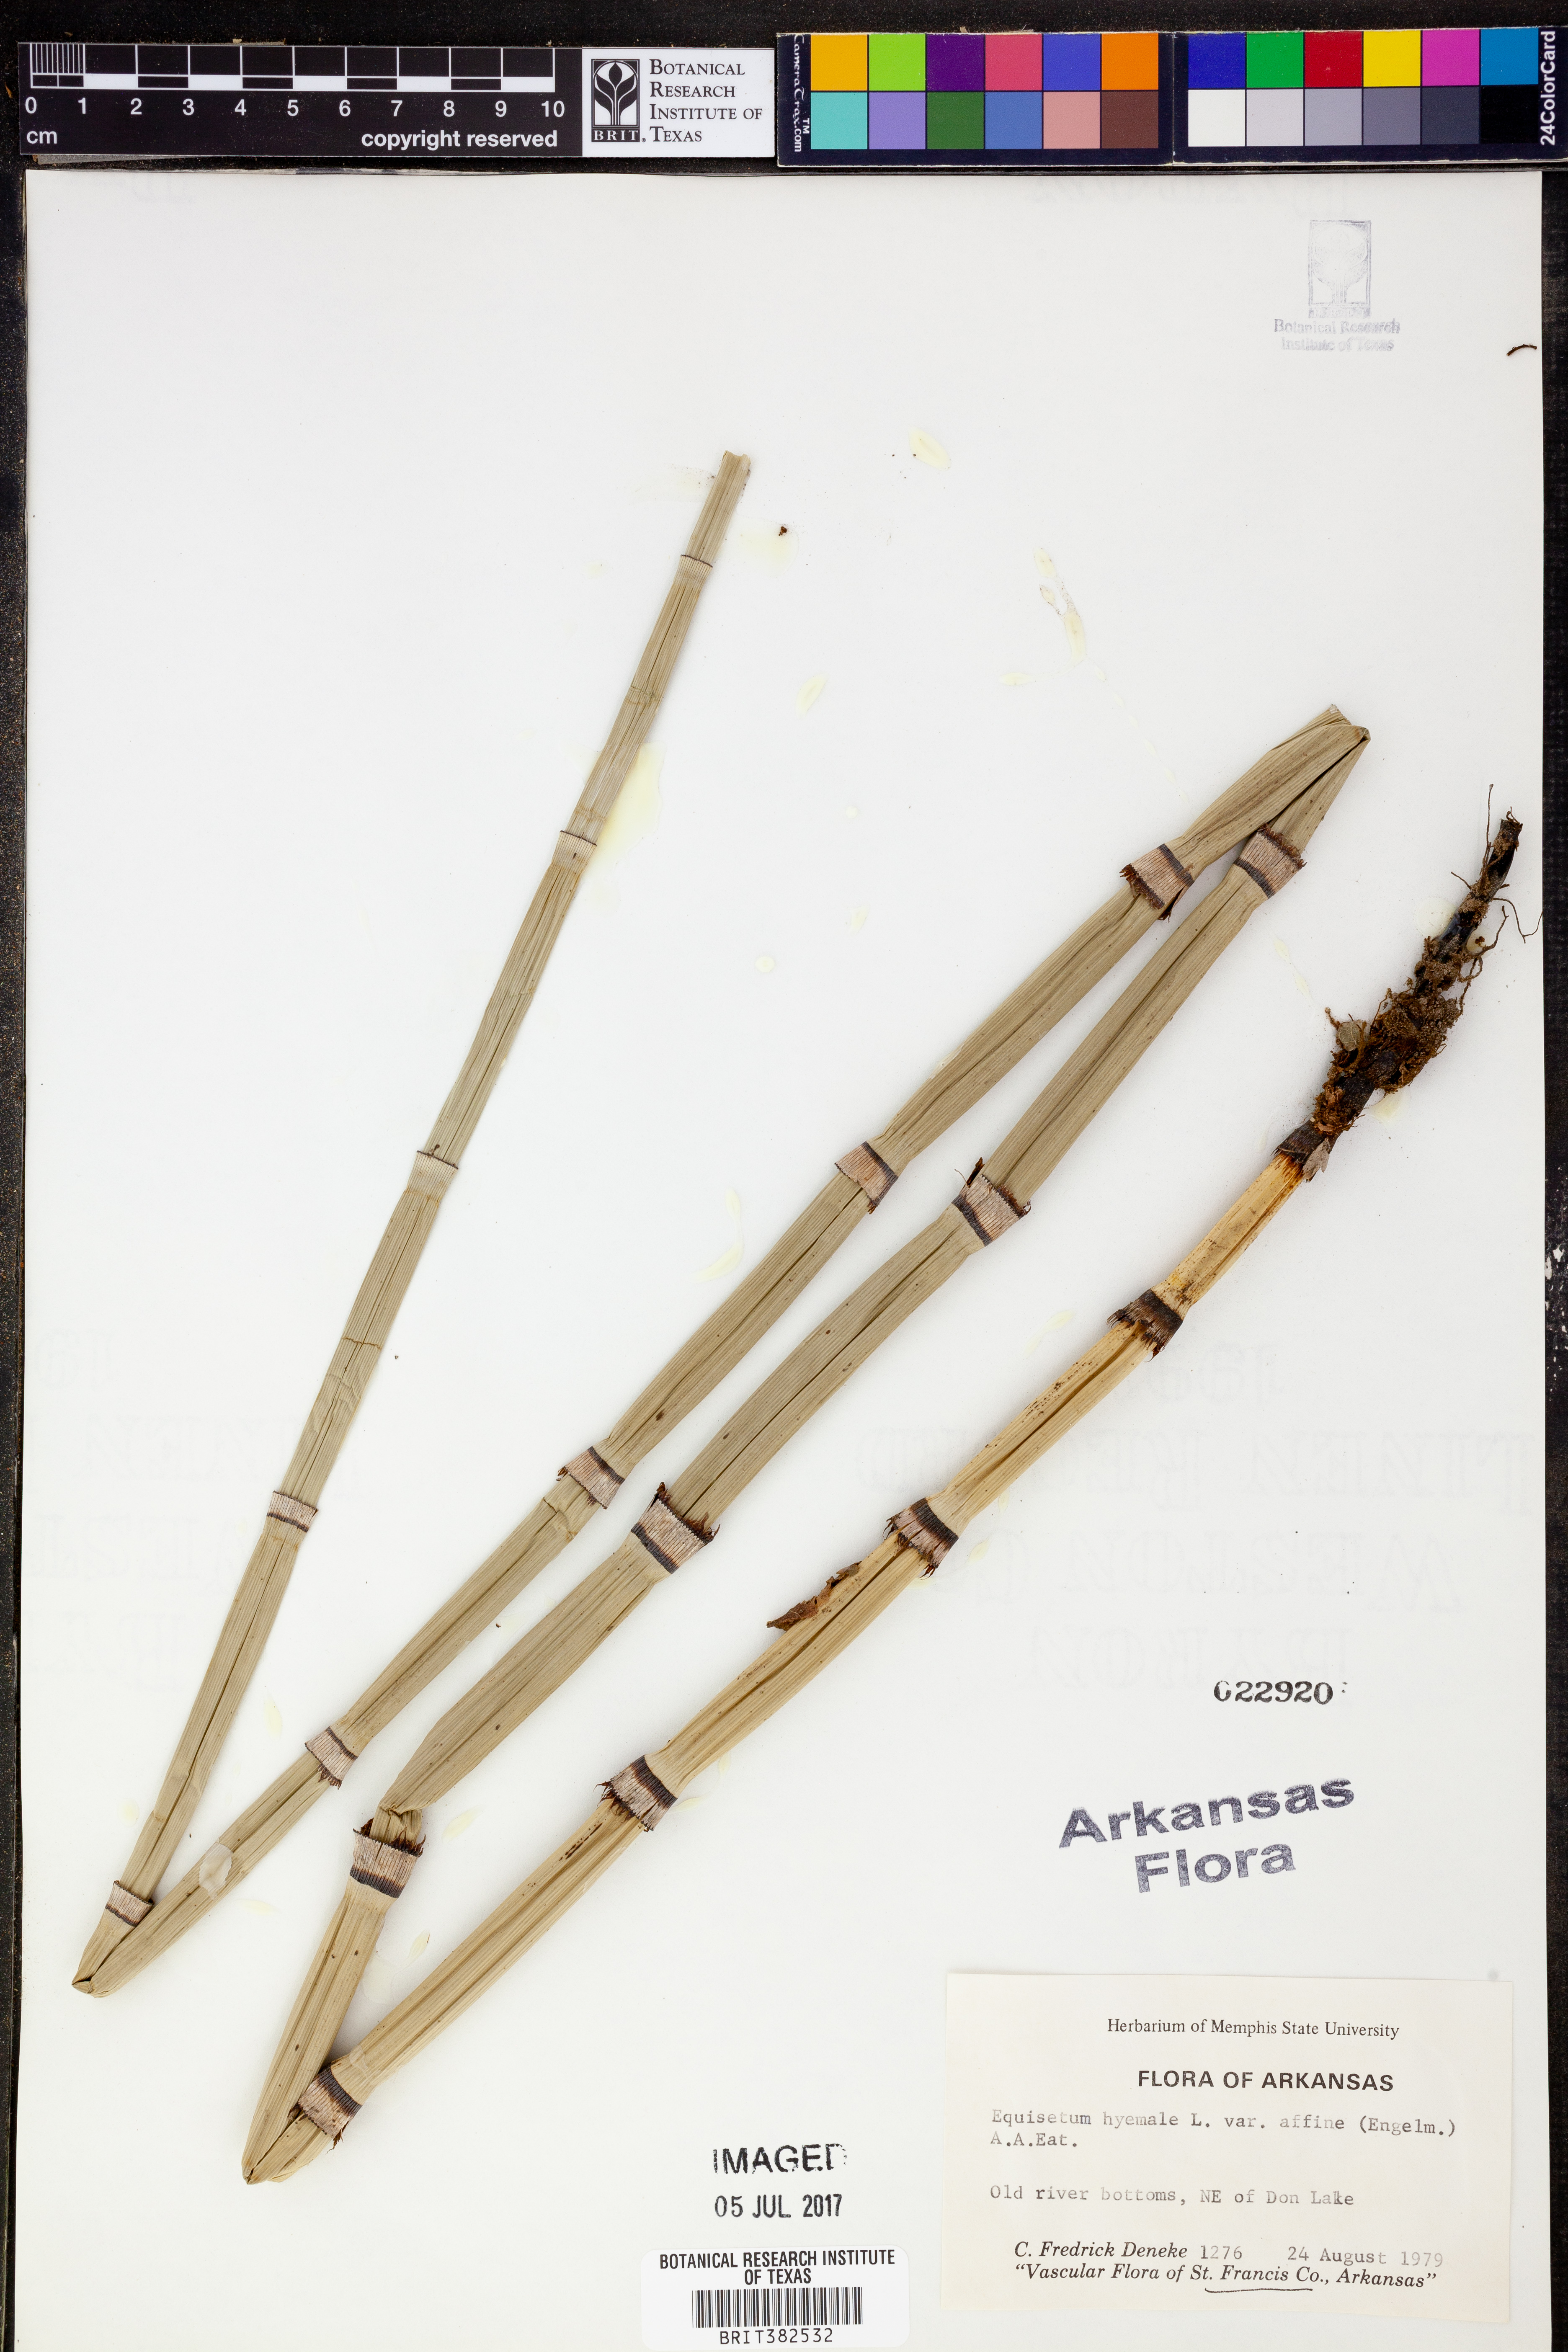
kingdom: Plantae
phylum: Tracheophyta
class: Polypodiopsida
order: Equisetales
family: Equisetaceae
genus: Equisetum
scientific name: Equisetum praealtum
